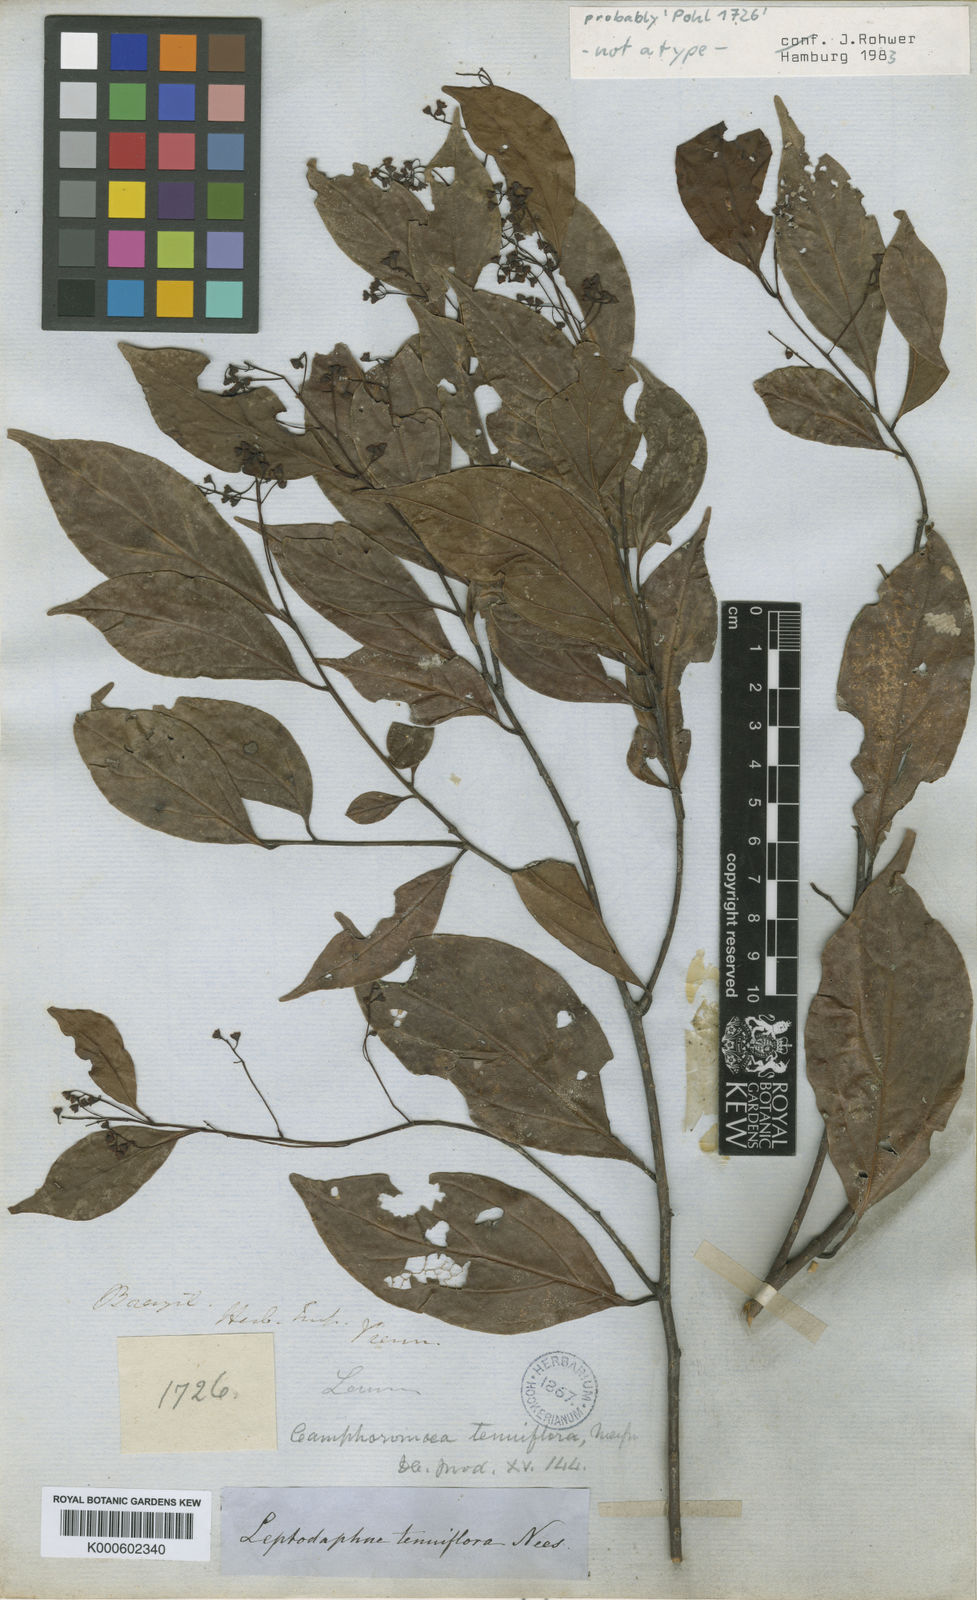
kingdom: Plantae
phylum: Tracheophyta
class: Magnoliopsida
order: Laurales
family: Lauraceae
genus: Ocotea
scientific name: Ocotea tenuiflora
